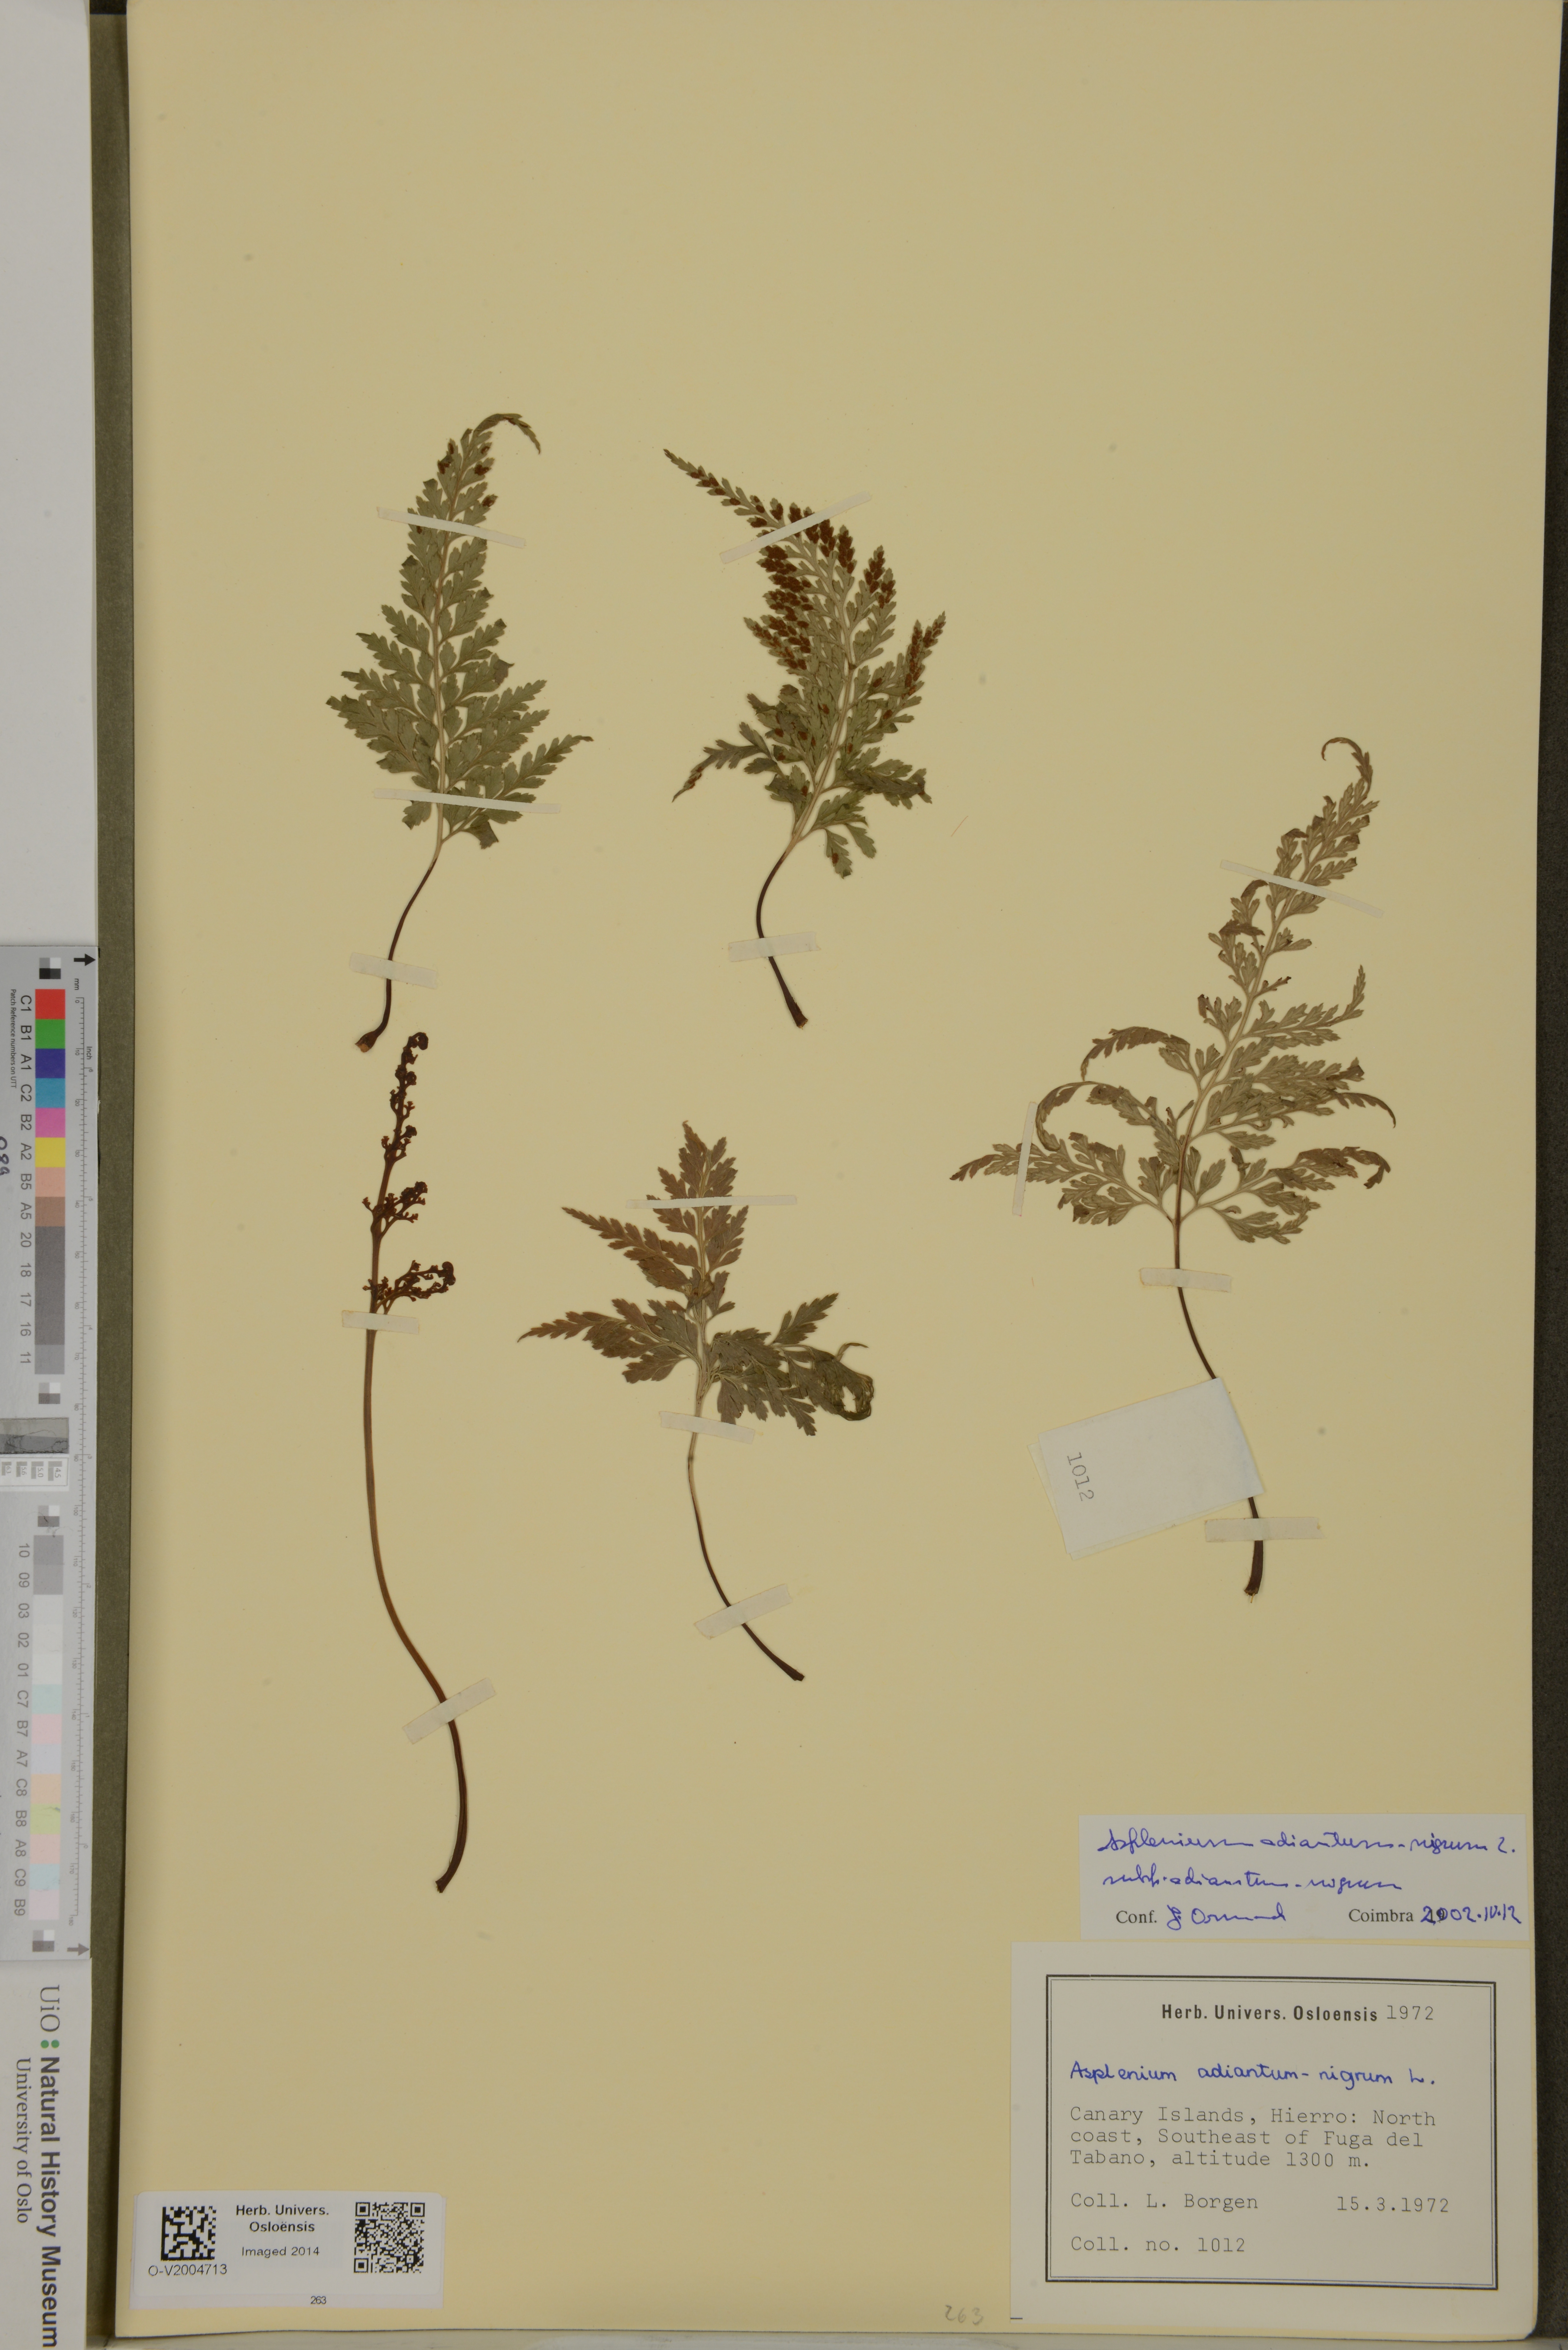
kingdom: Plantae
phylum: Tracheophyta
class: Polypodiopsida
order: Polypodiales
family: Aspleniaceae
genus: Asplenium
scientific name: Asplenium adiantum-nigrum
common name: Black spleenwort
